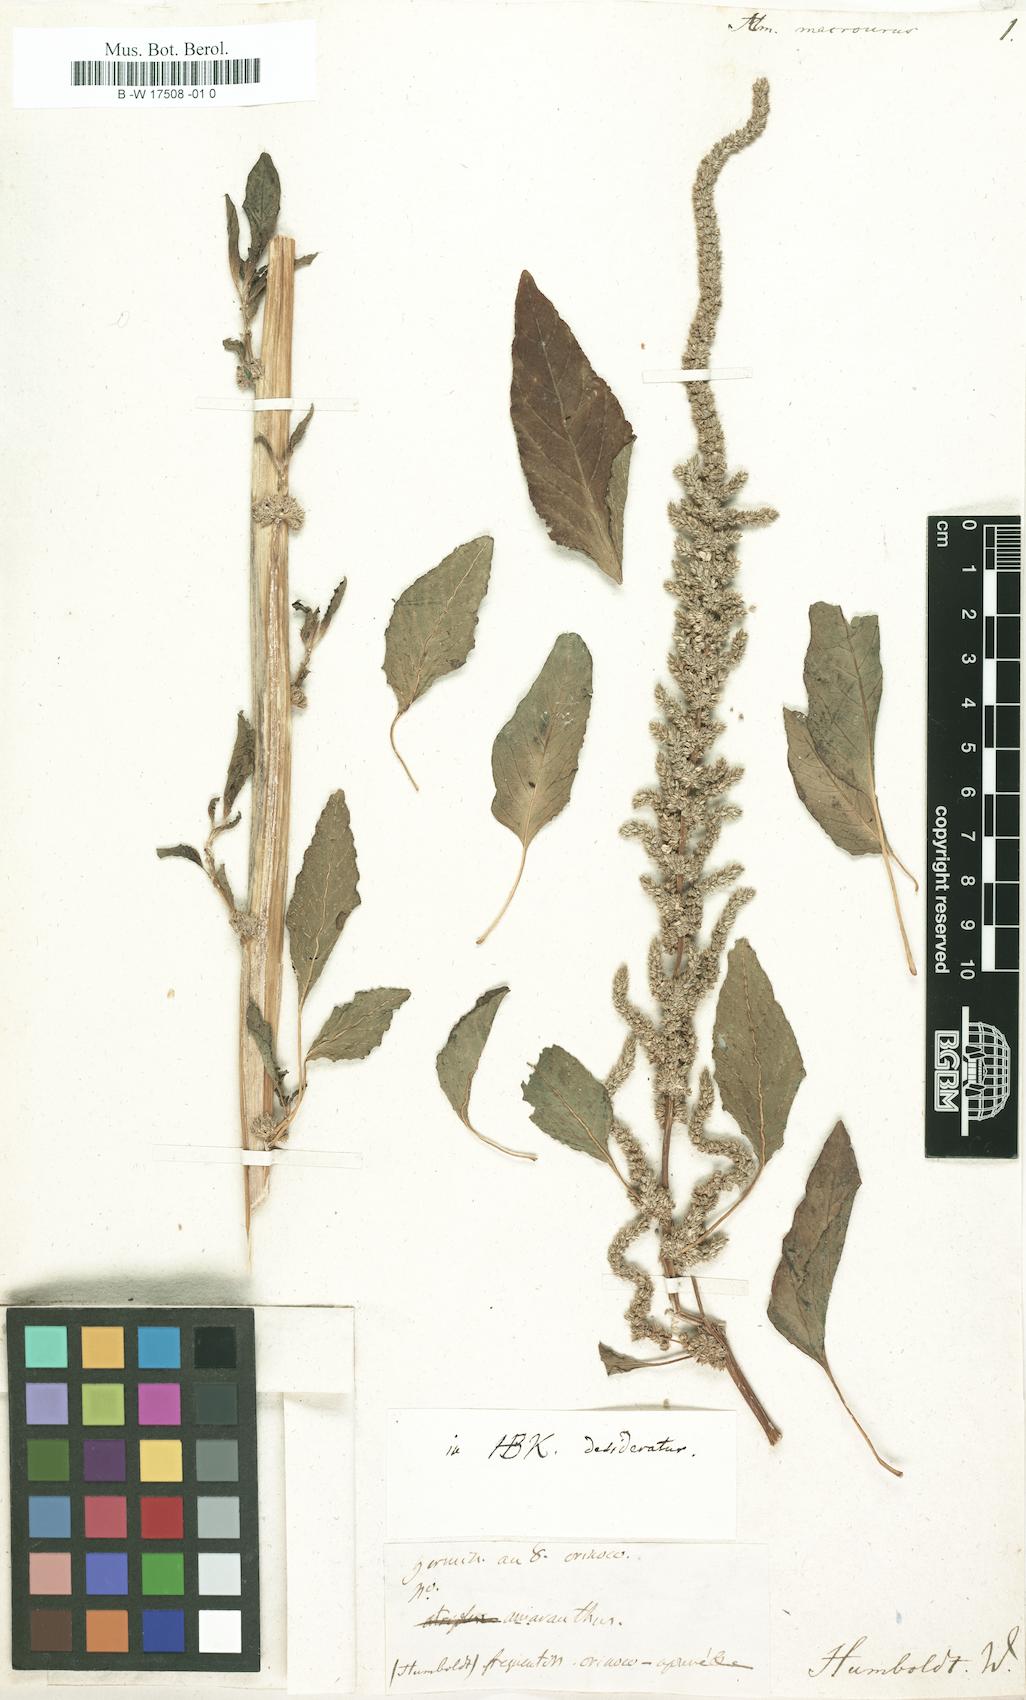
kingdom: Plantae
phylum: Tracheophyta
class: Magnoliopsida
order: Caryophyllales
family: Amaranthaceae
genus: Amaranthus
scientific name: Amaranthus
